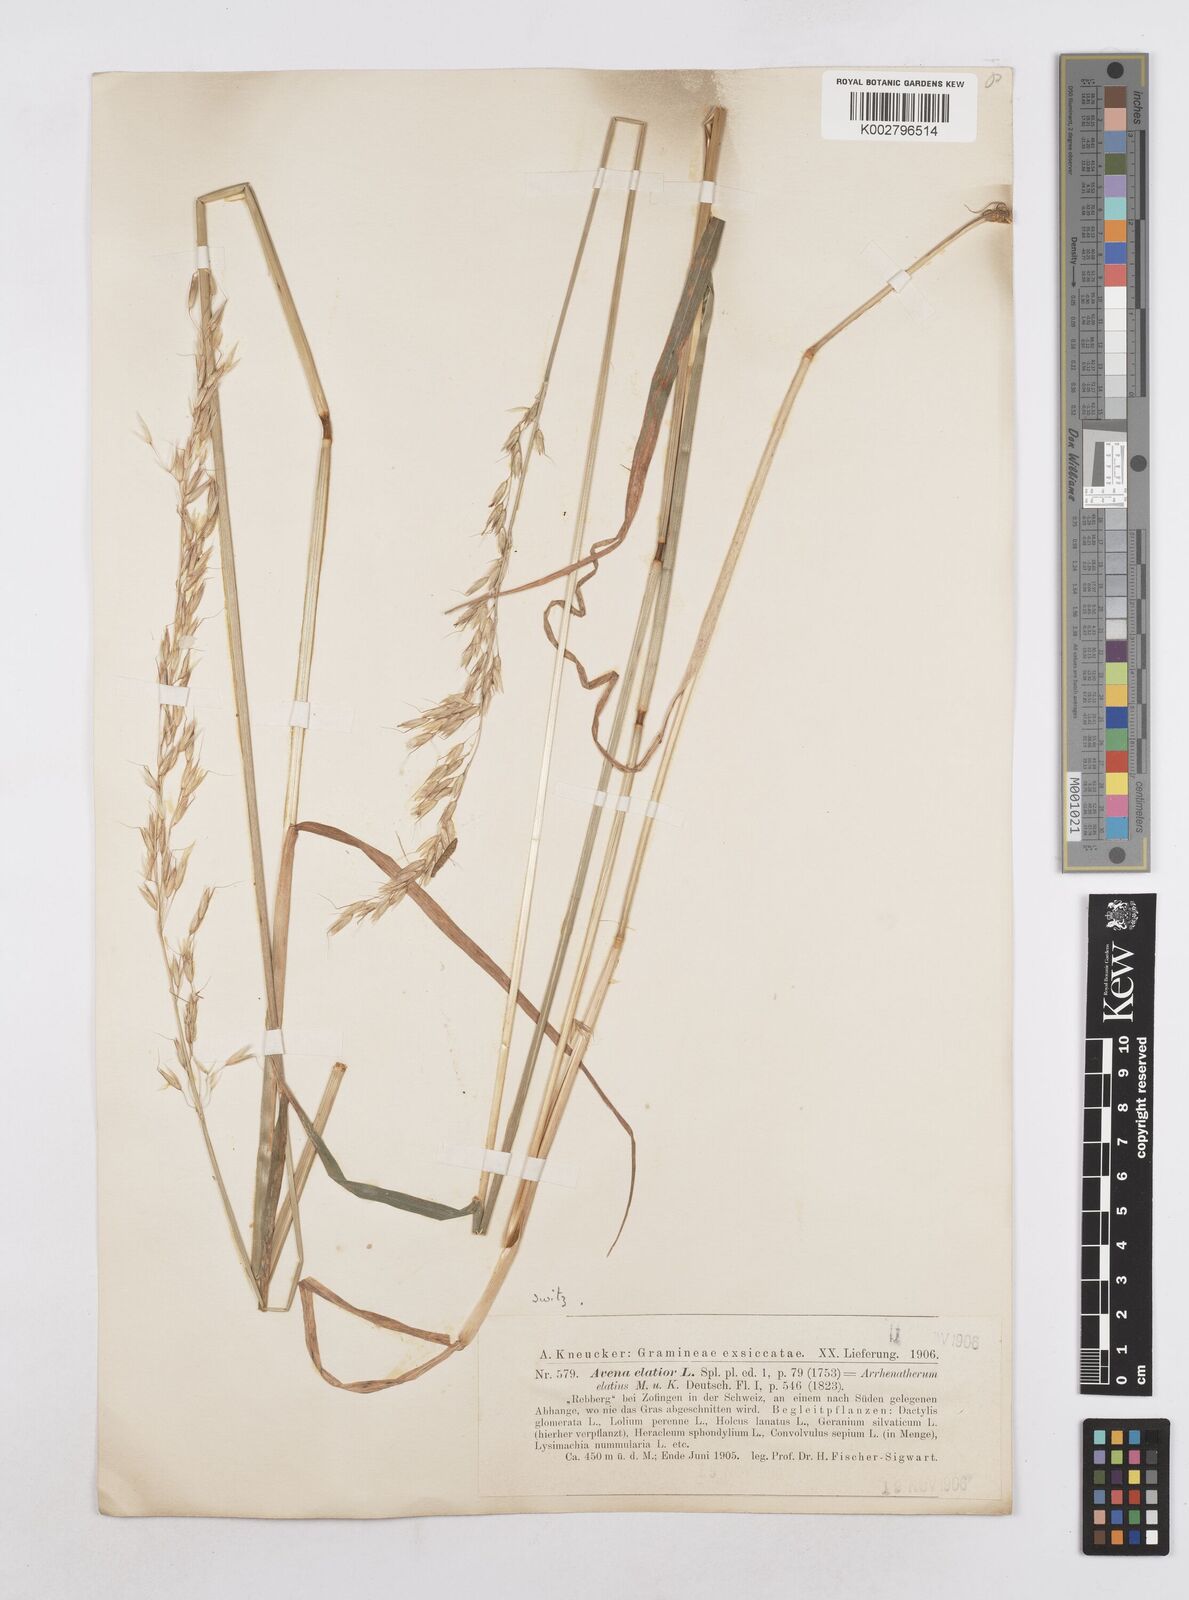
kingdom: Plantae
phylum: Tracheophyta
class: Liliopsida
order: Poales
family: Poaceae
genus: Arrhenatherum
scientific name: Arrhenatherum elatius
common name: Tall oatgrass
